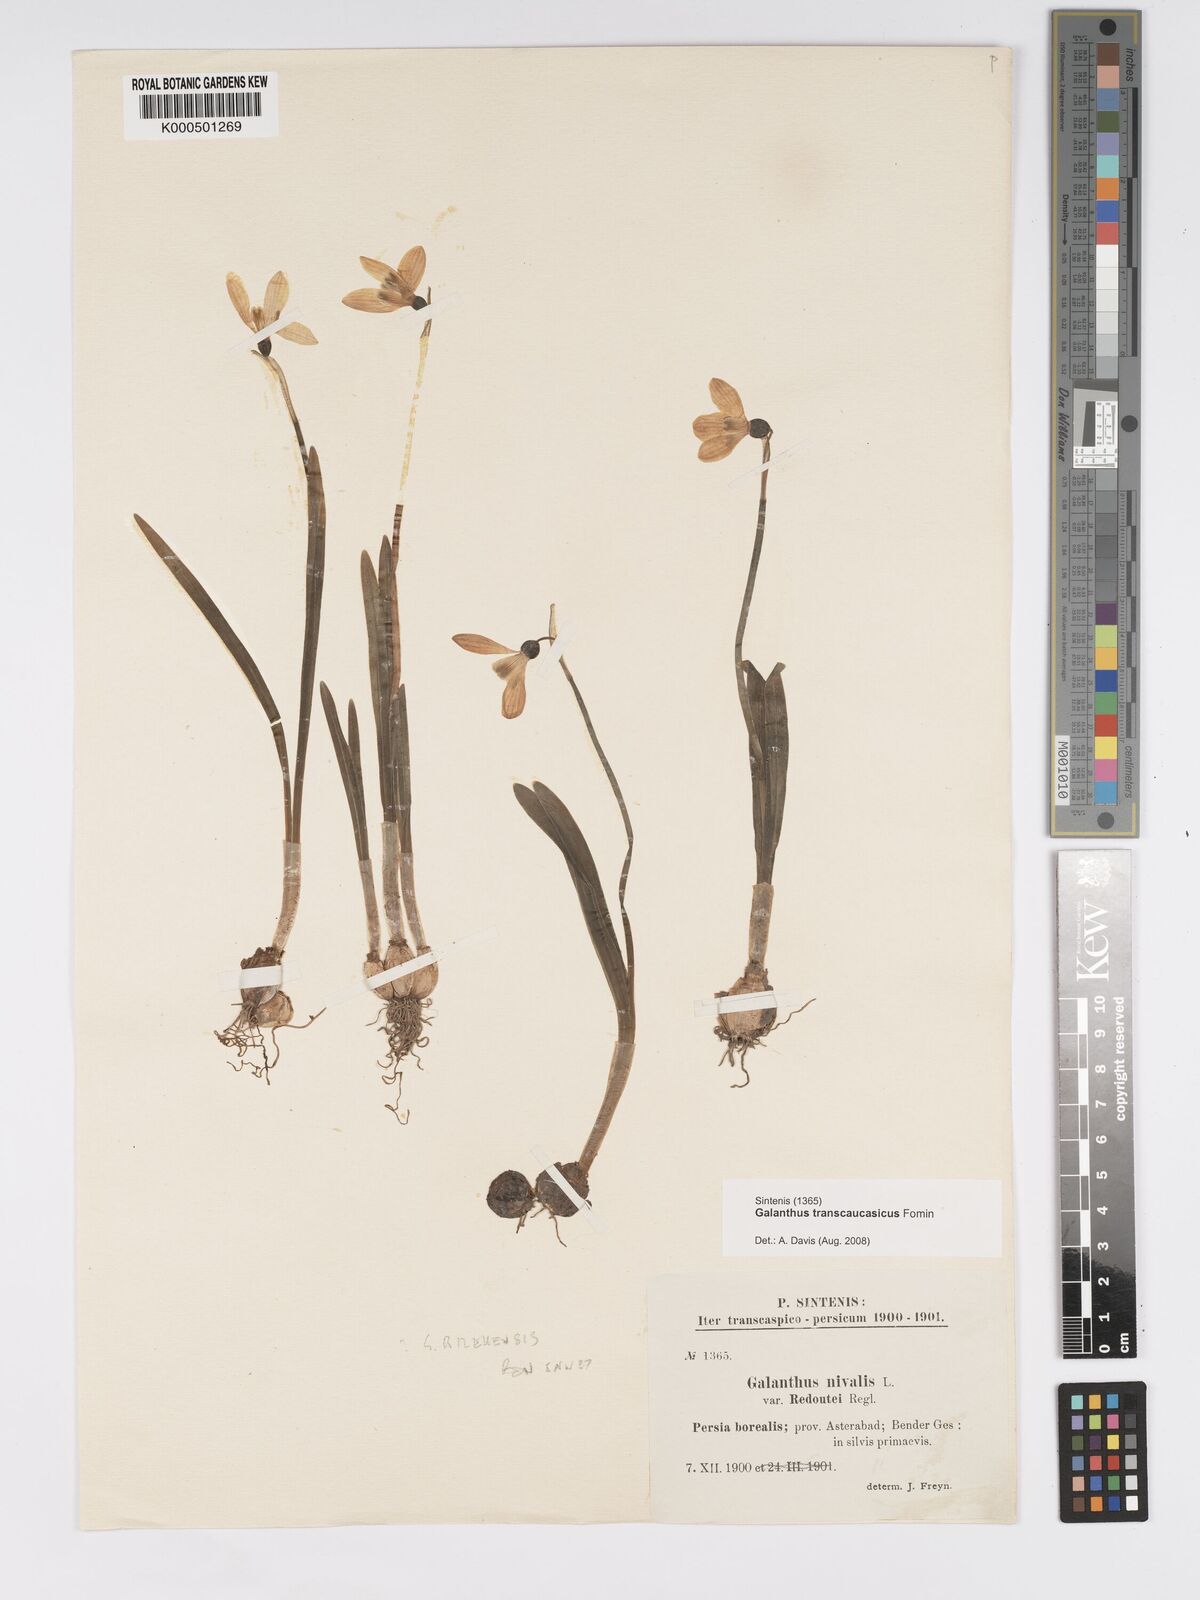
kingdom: Plantae
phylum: Tracheophyta
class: Liliopsida
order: Asparagales
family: Amaryllidaceae
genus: Galanthus
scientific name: Galanthus transcaucasicus
